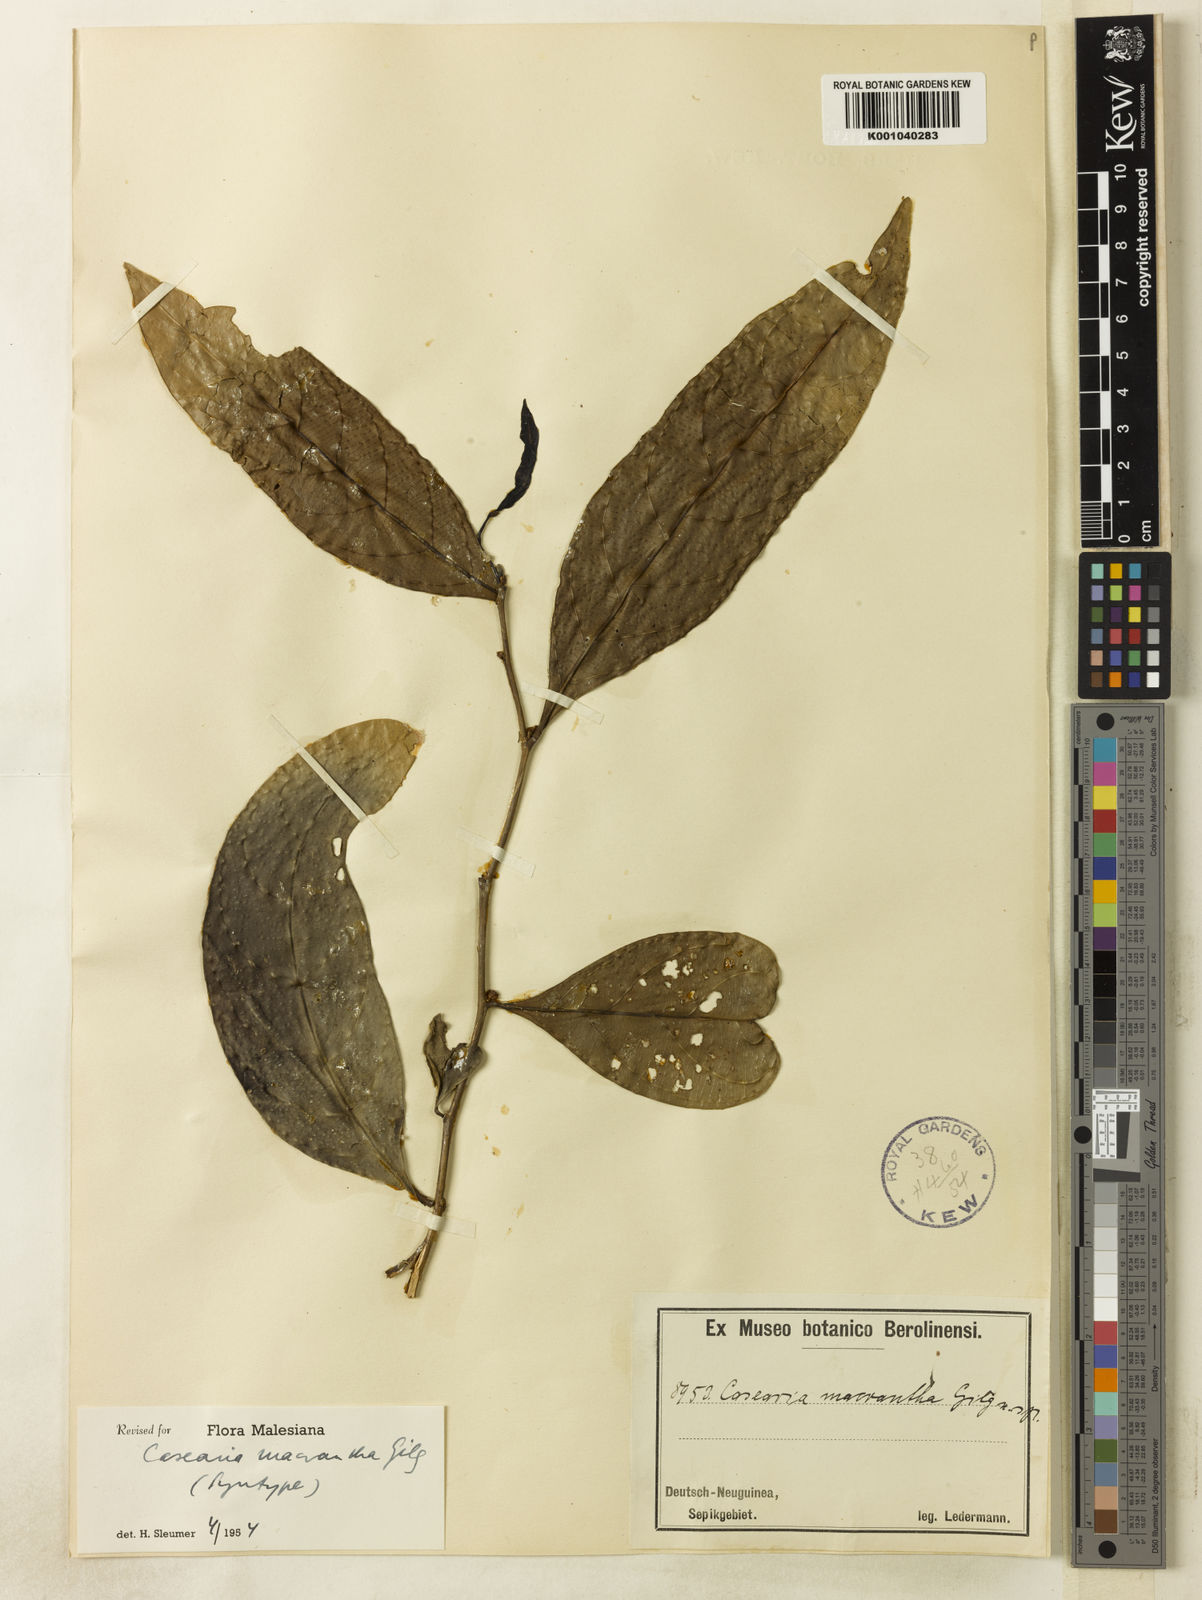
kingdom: Plantae
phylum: Tracheophyta
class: Magnoliopsida
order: Malpighiales
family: Salicaceae
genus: Casearia
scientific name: Casearia macrantha
